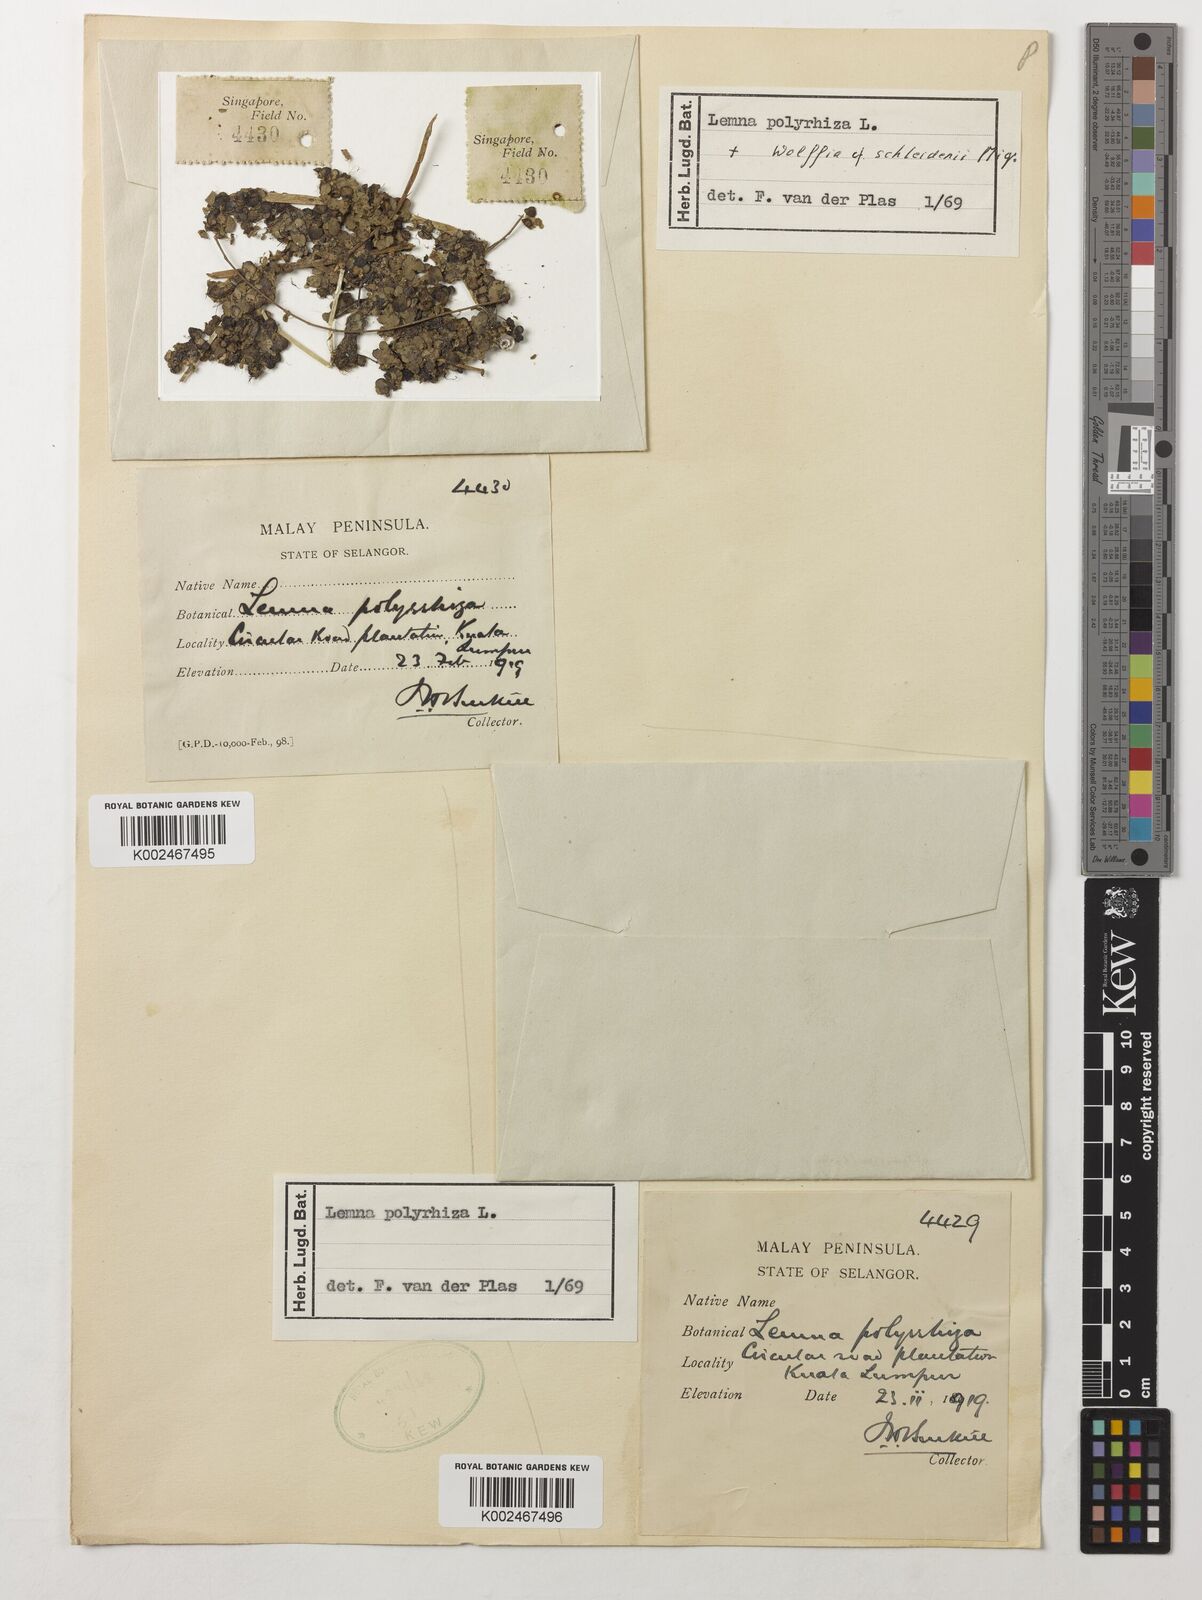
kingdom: Plantae
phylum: Tracheophyta
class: Liliopsida
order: Alismatales
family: Araceae
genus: Spirodela
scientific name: Spirodela polyrhiza
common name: Great duckweed
